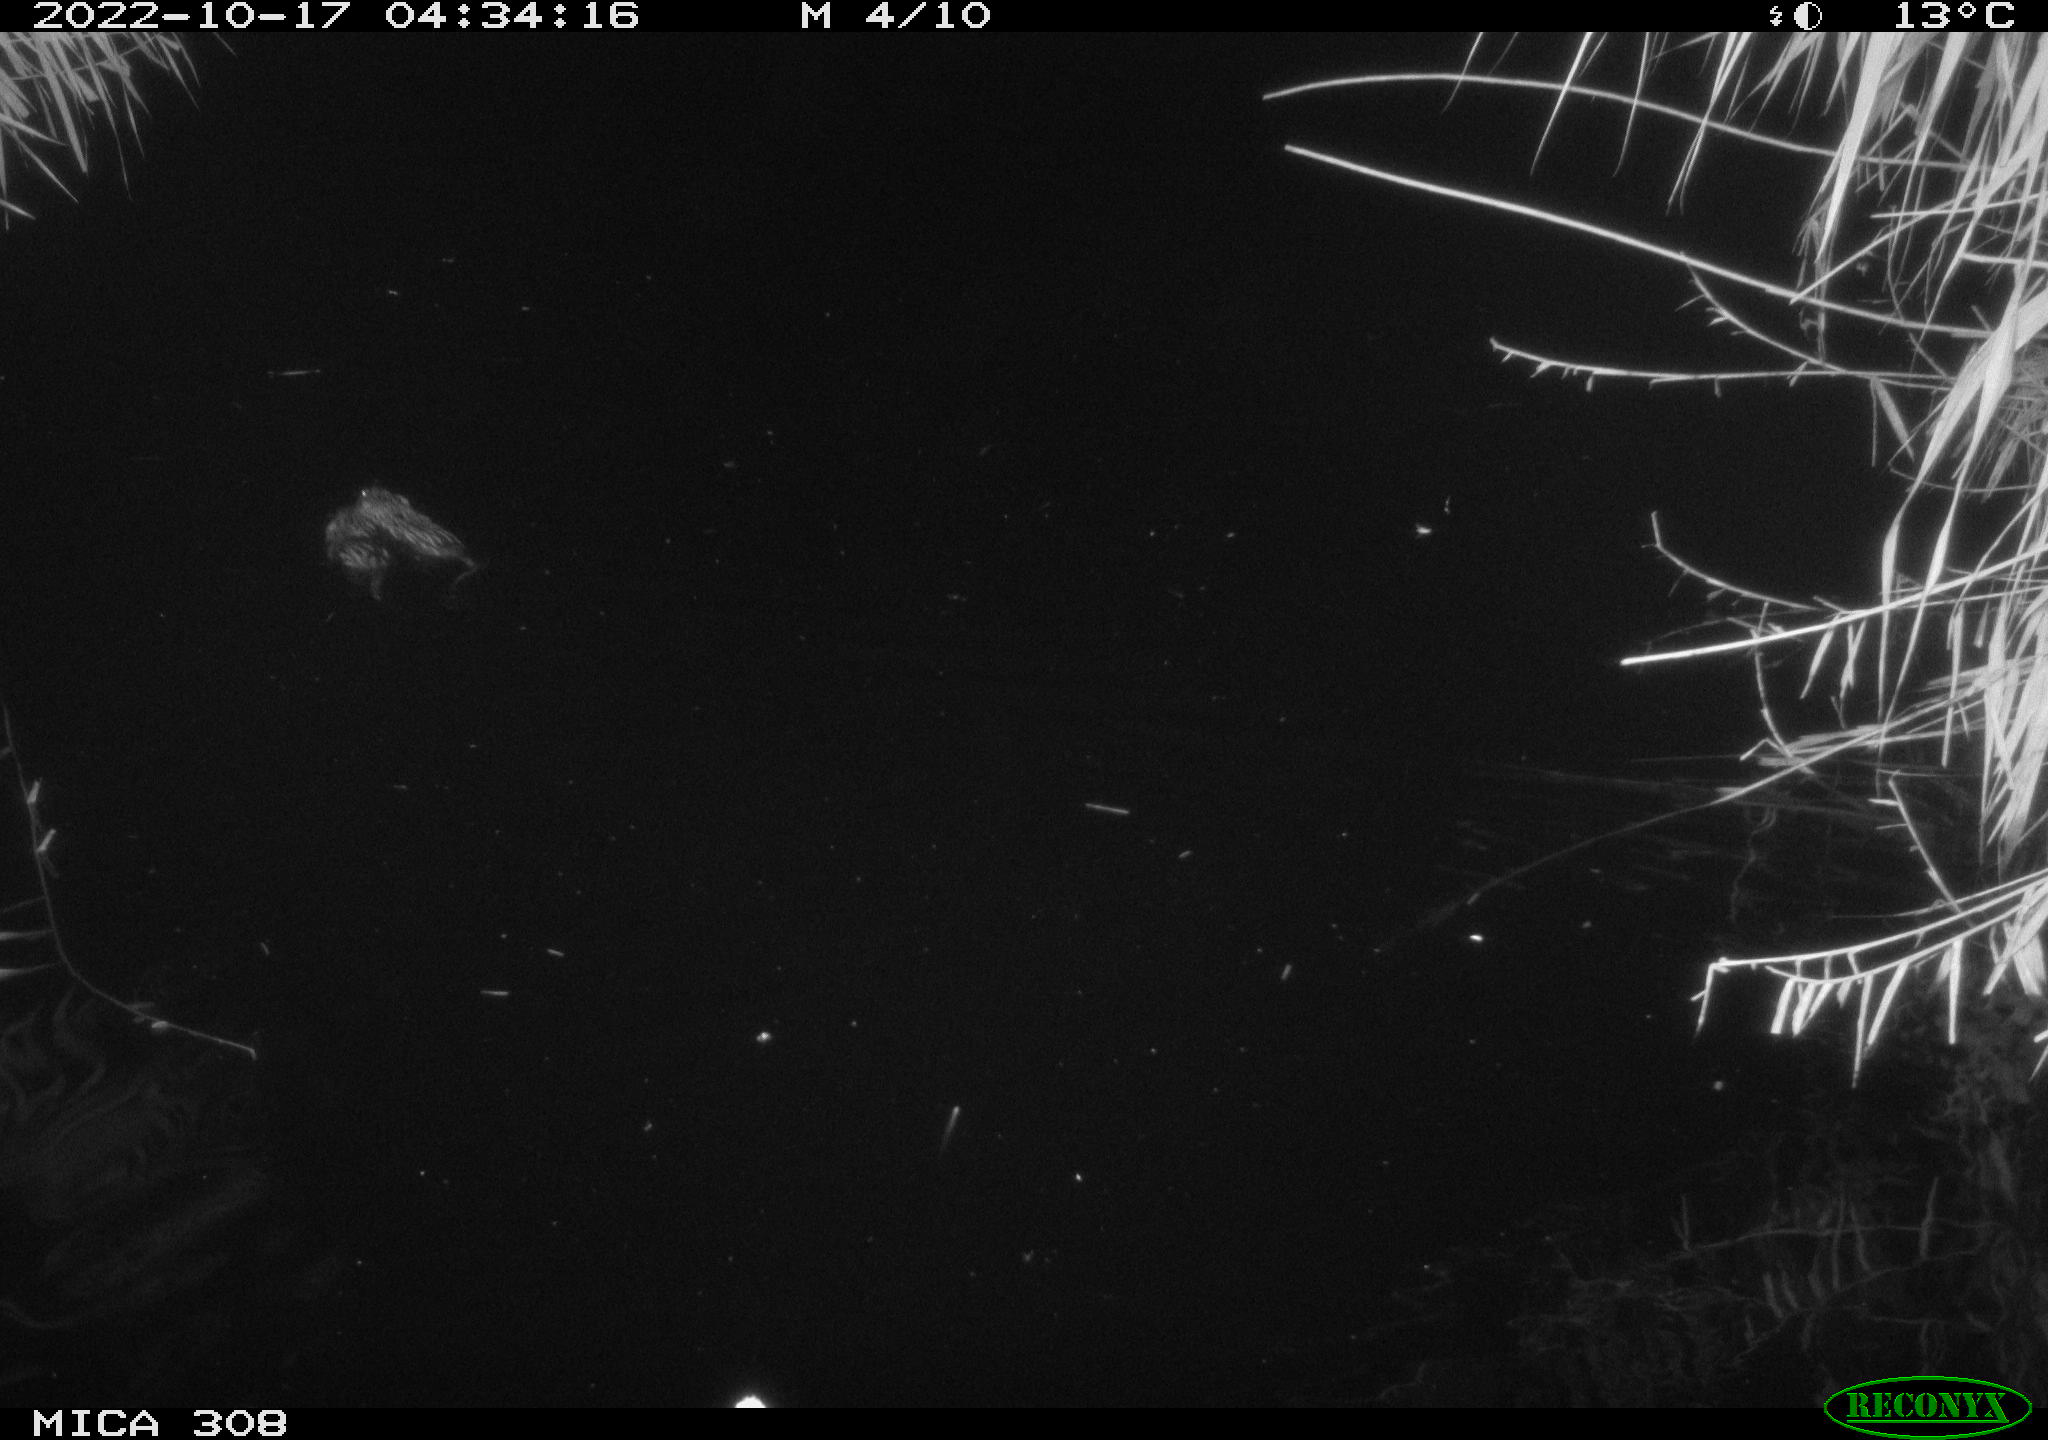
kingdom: Animalia
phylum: Chordata
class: Mammalia
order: Rodentia
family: Cricetidae
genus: Ondatra
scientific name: Ondatra zibethicus
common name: Muskrat
